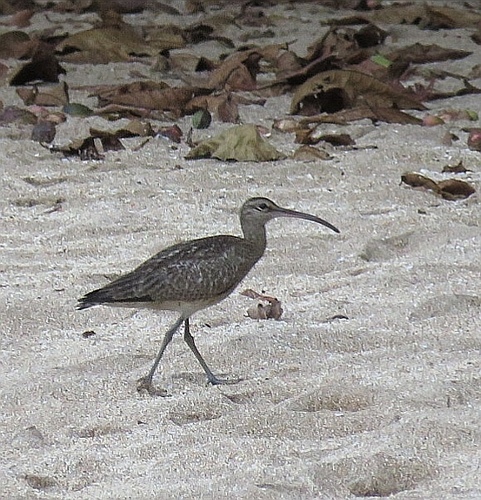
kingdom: Animalia
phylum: Chordata
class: Aves
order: Charadriiformes
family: Scolopacidae
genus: Numenius
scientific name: Numenius phaeopus
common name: Whimbrel
